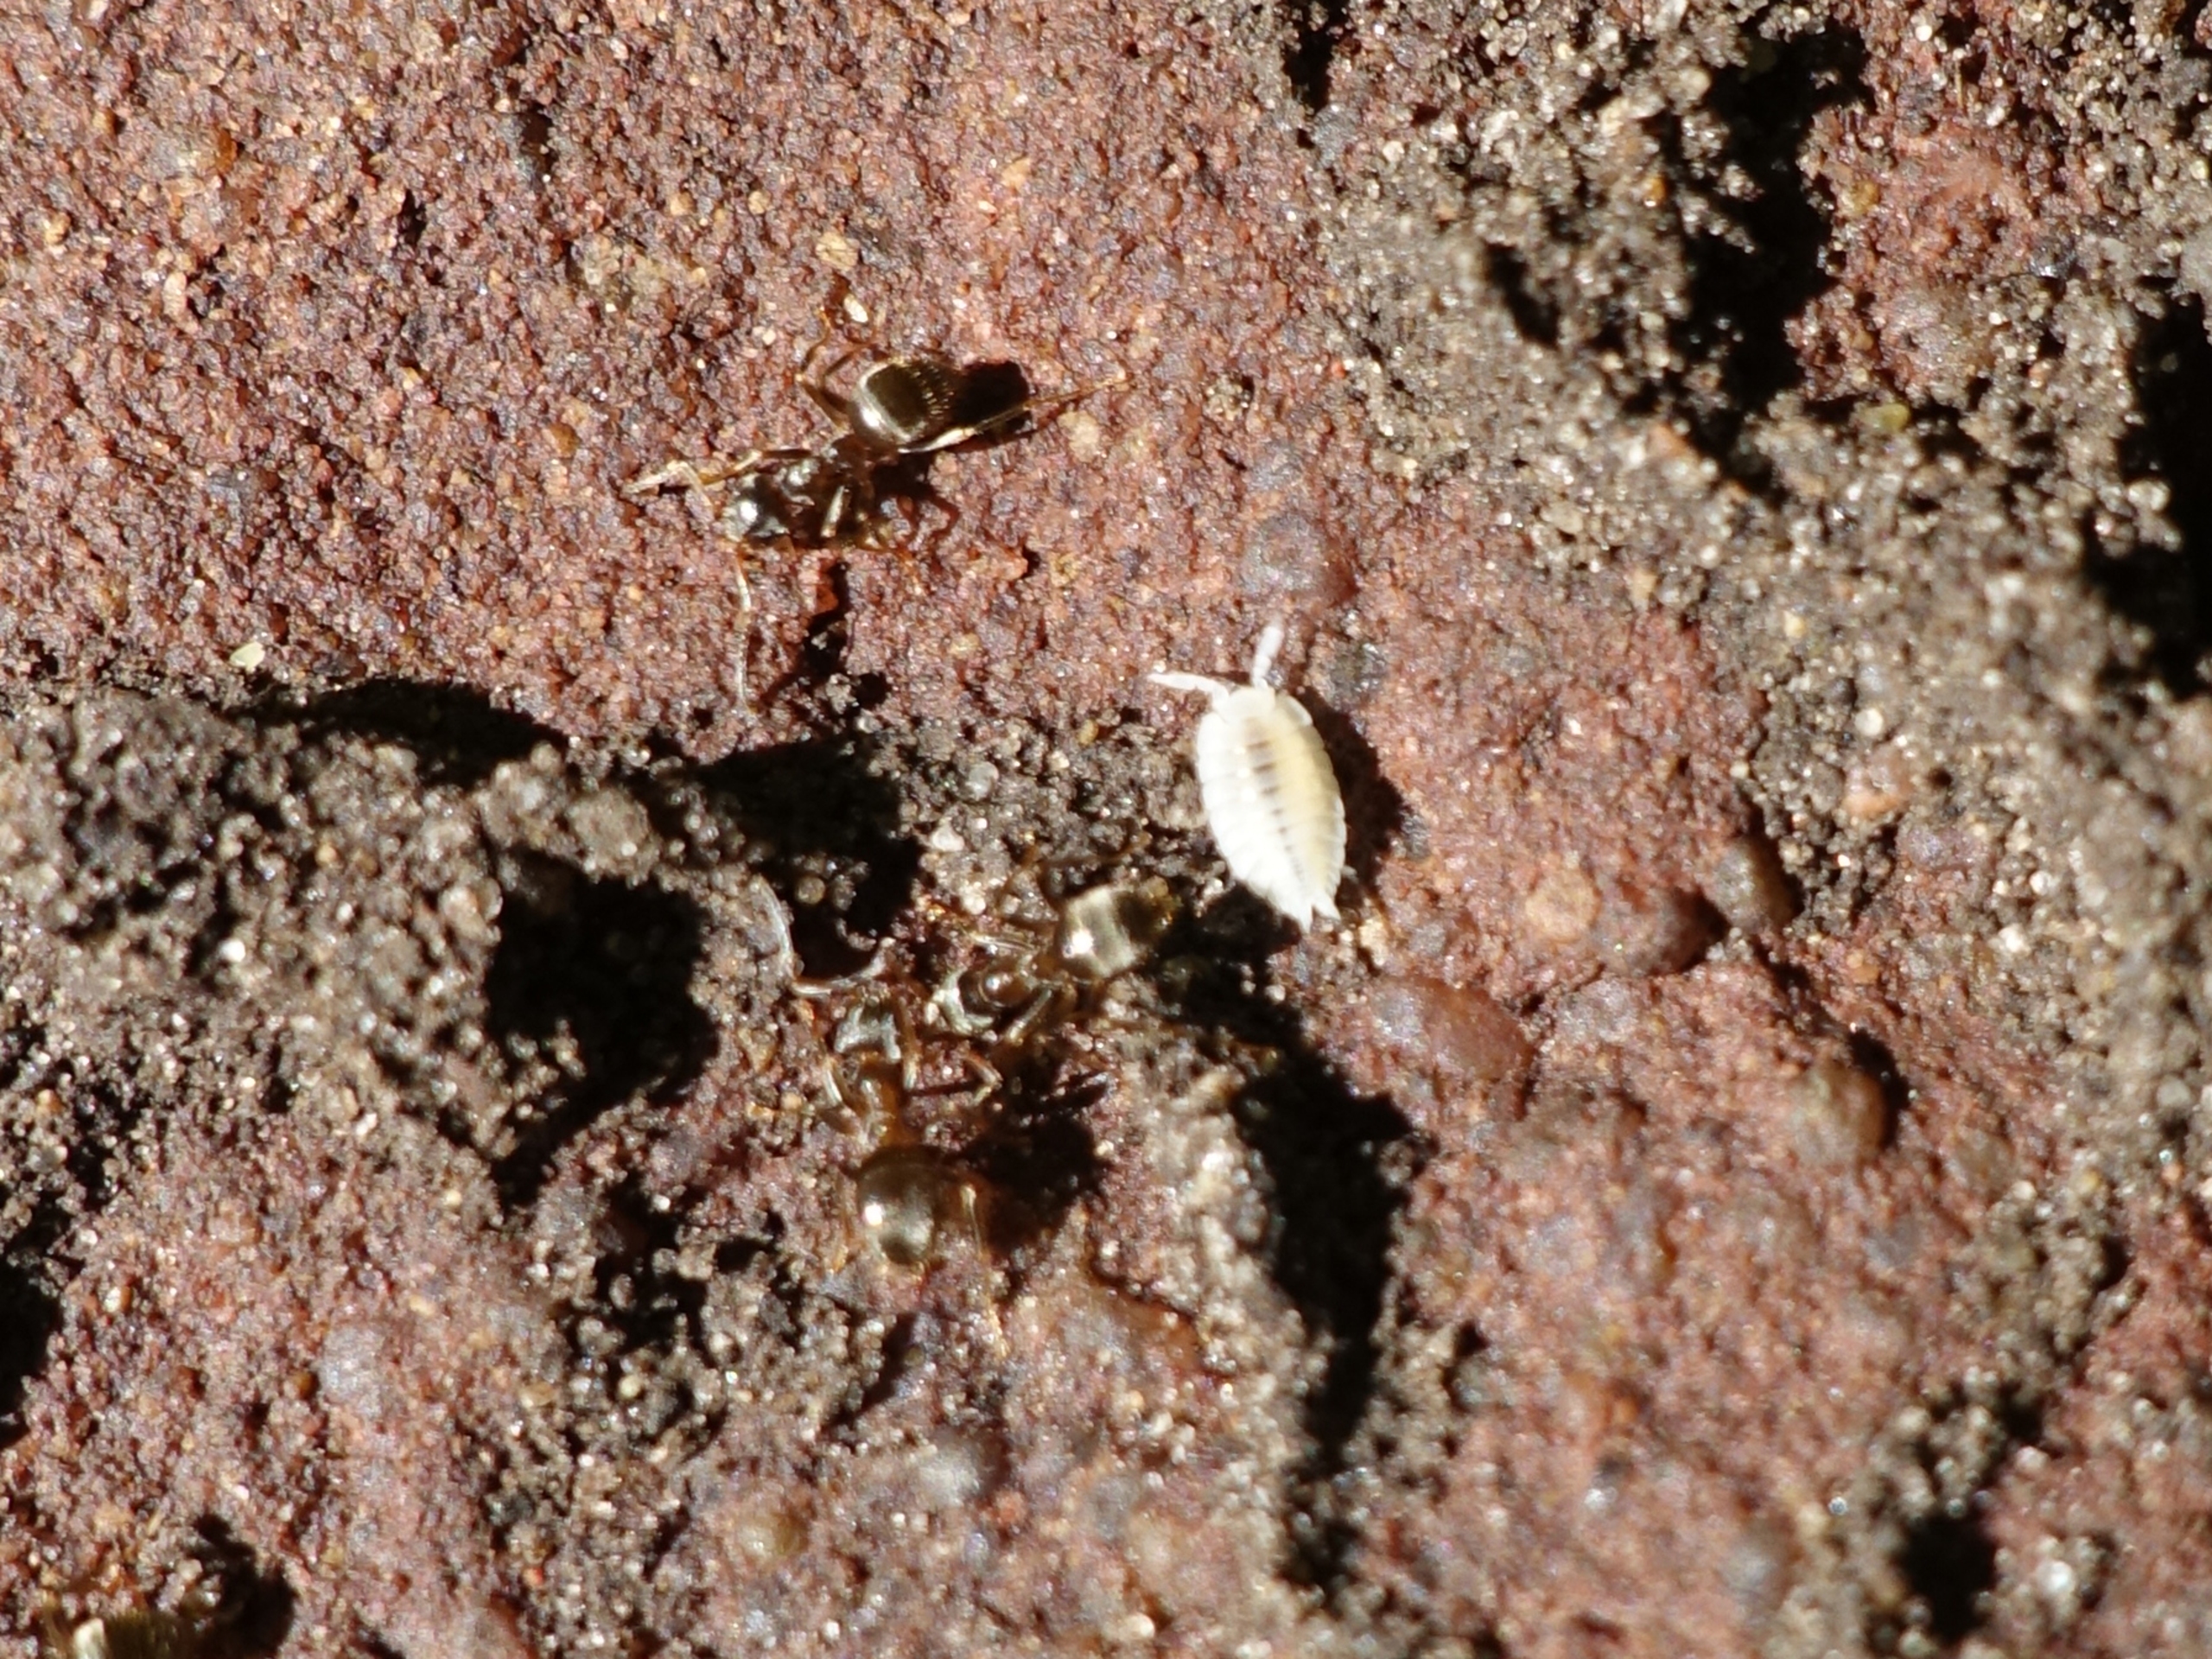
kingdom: Animalia
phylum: Arthropoda
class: Malacostraca
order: Isopoda
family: Platyarthridae
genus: Platyarthrus
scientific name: Platyarthrus hoffmannseggii
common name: Myrebænkebider
